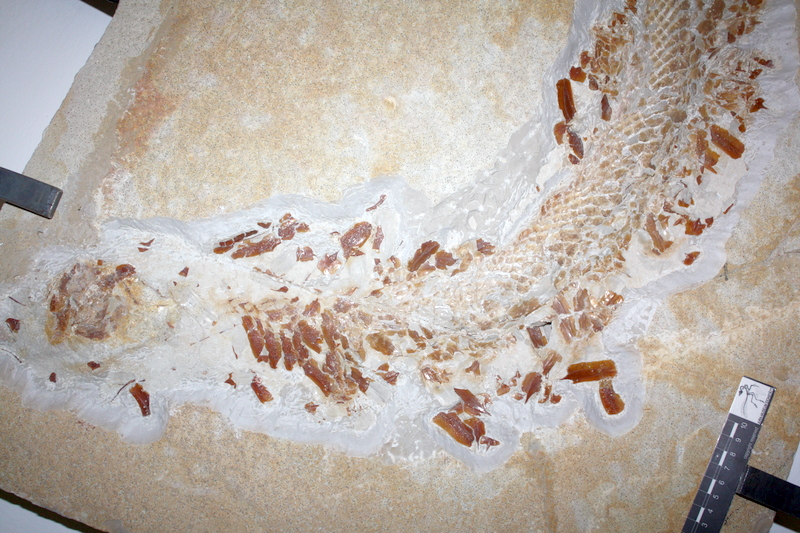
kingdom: Animalia
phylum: Chordata
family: Aspidorhynchidae
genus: Aspidorhynchus
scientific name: Aspidorhynchus acutirostris
